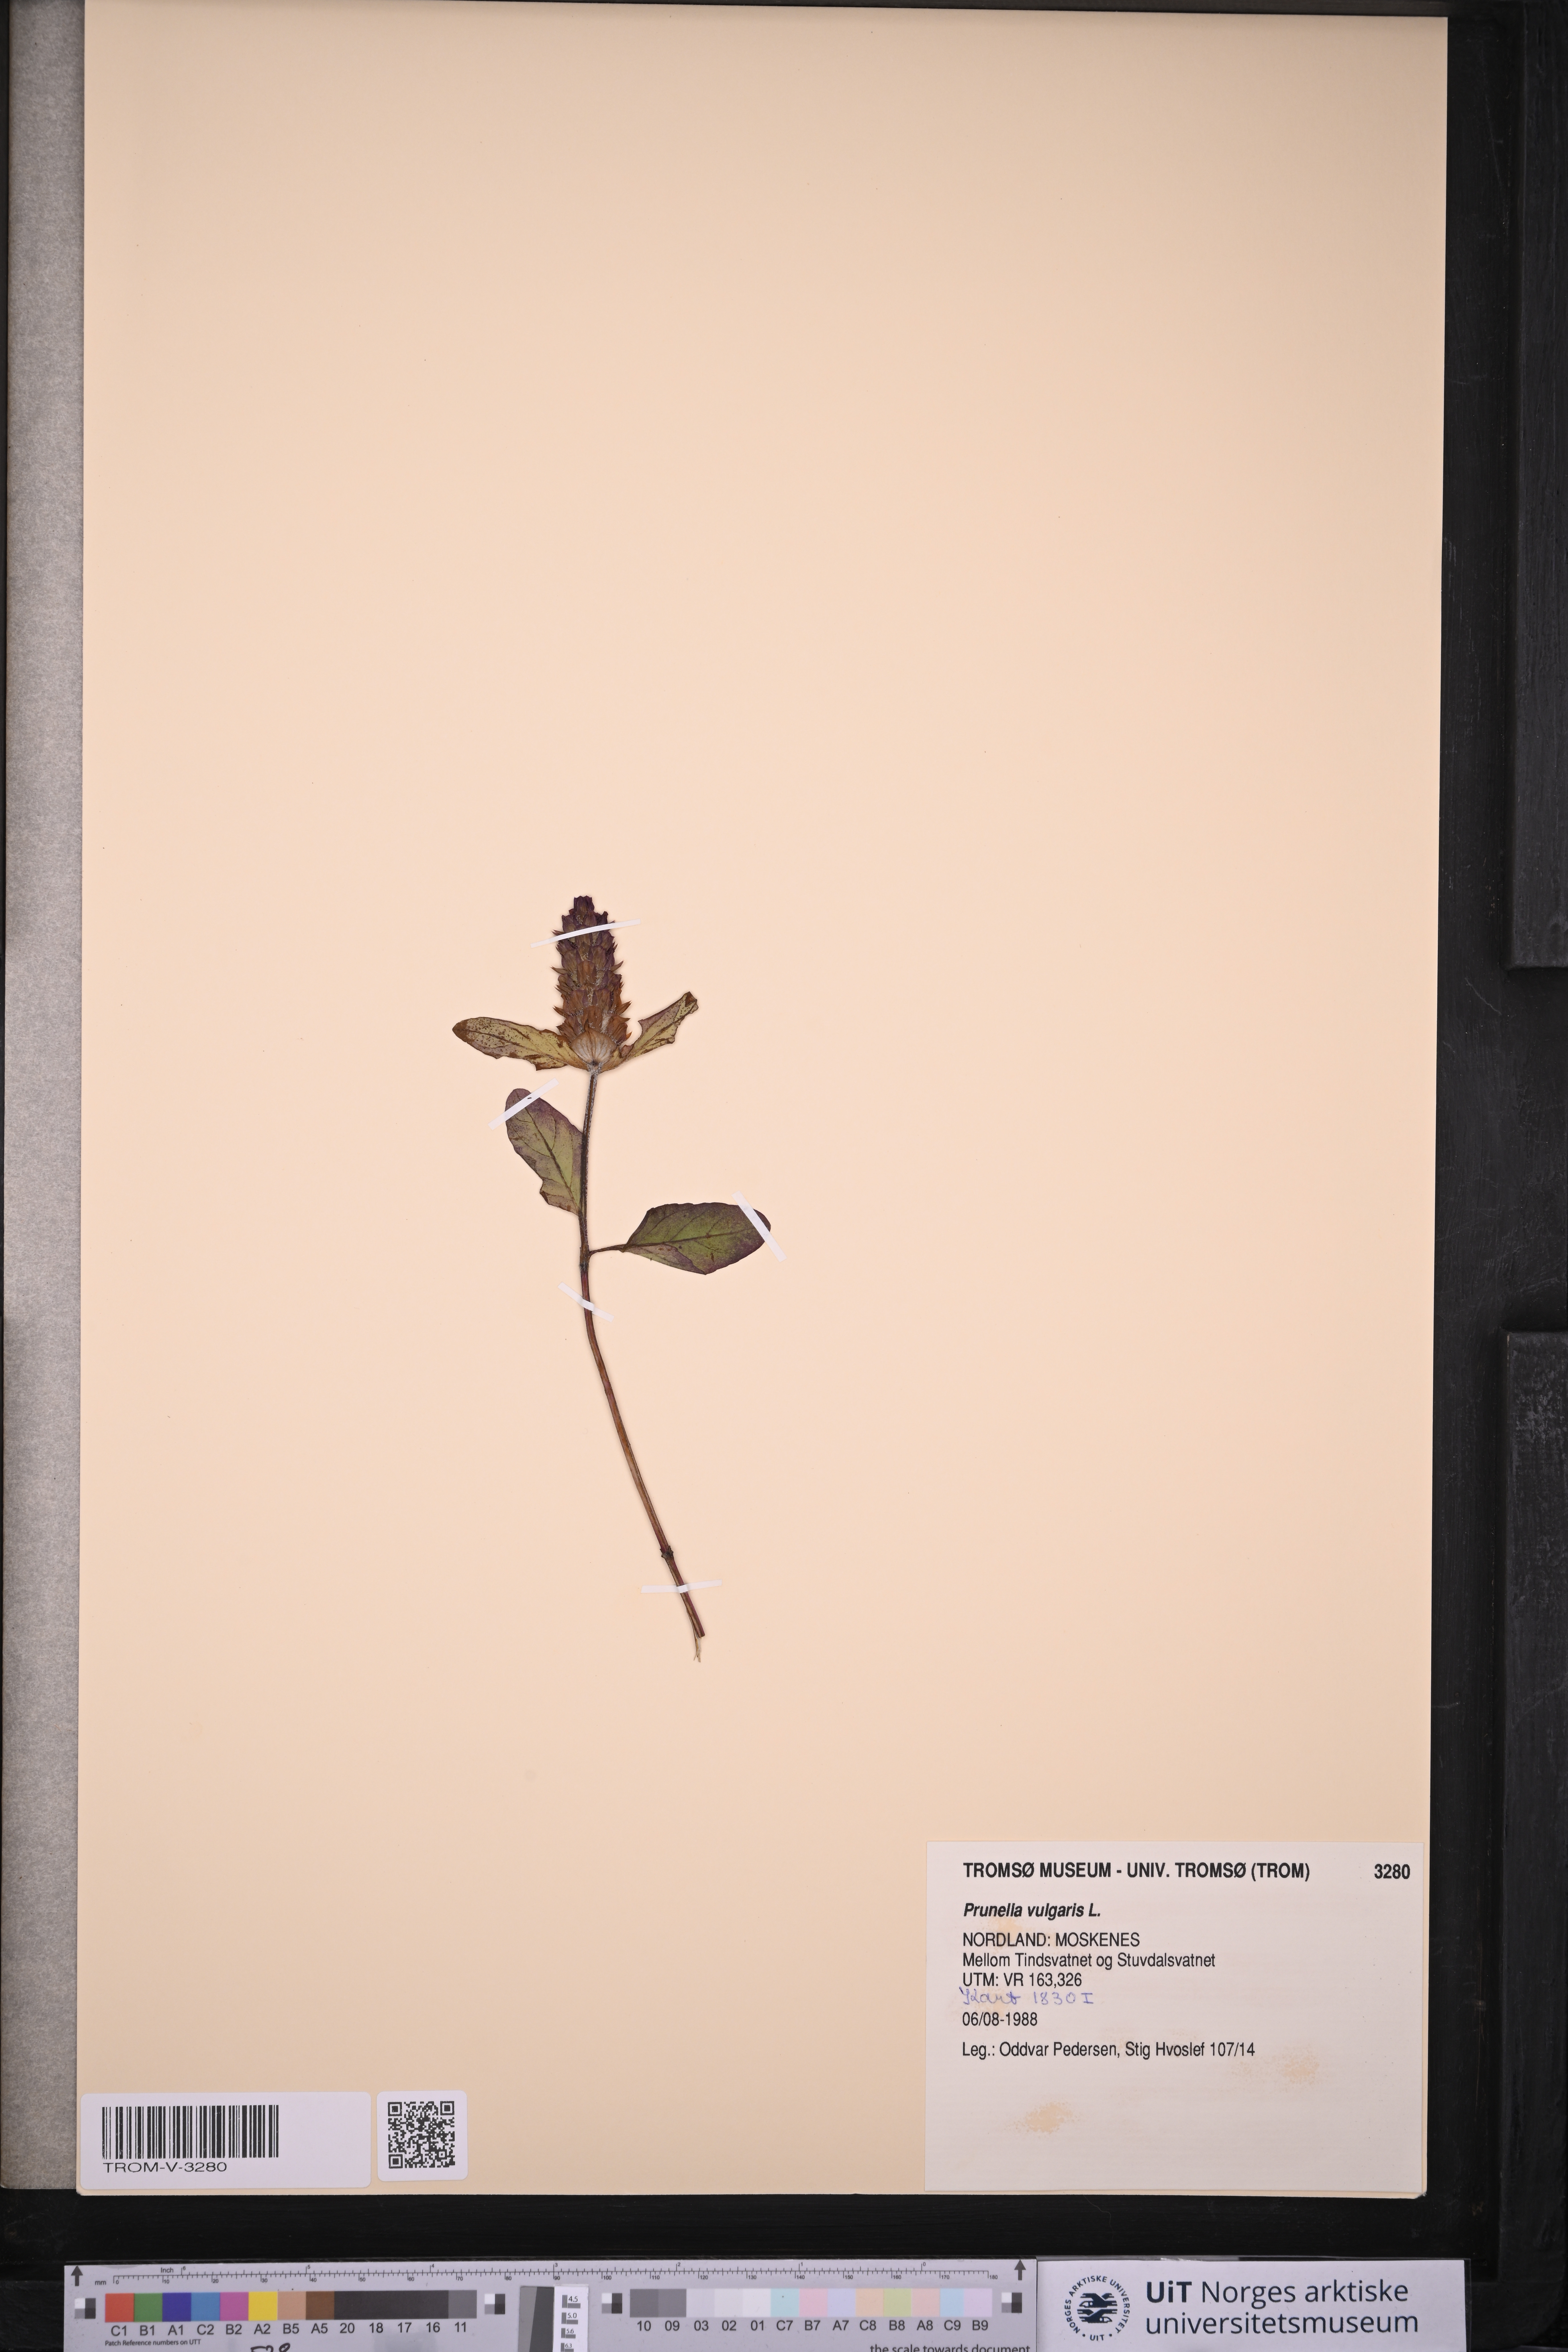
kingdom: Plantae
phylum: Tracheophyta
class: Magnoliopsida
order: Lamiales
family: Lamiaceae
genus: Prunella
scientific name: Prunella vulgaris
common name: Heal-all
